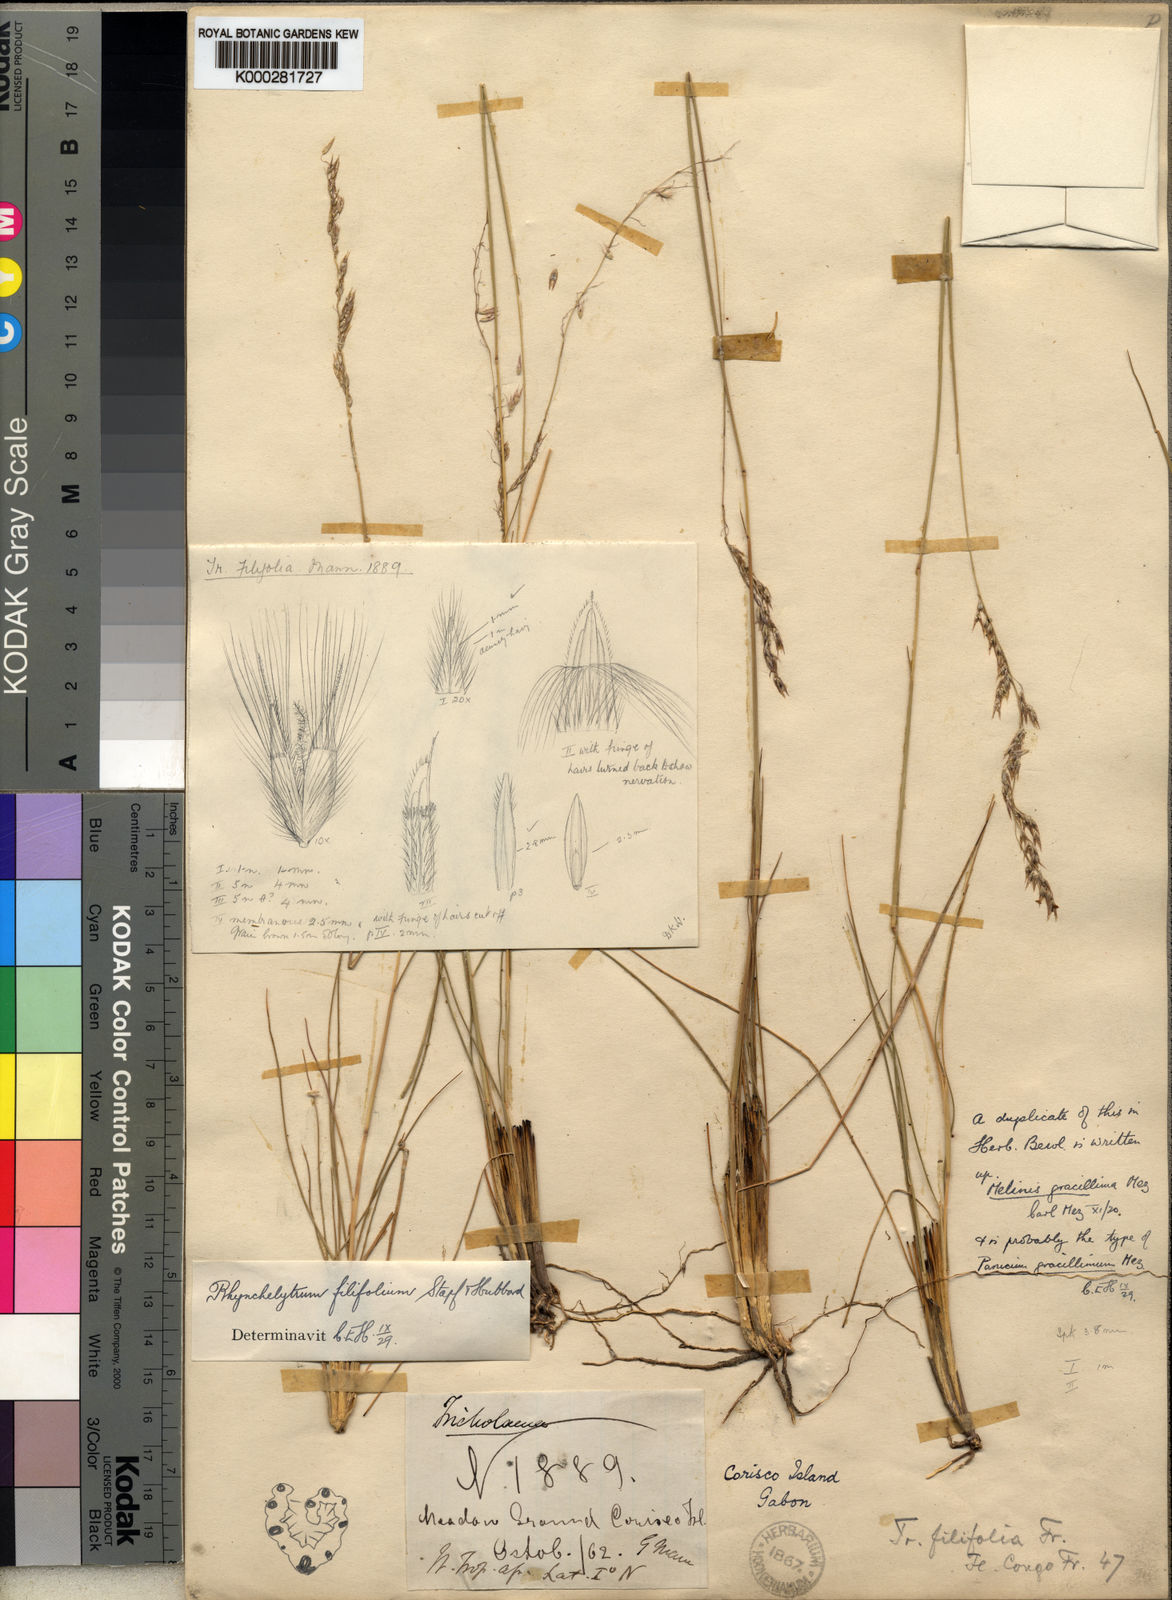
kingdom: Plantae
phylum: Tracheophyta
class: Liliopsida
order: Poales
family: Poaceae
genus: Melinis
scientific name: Melinis nerviglumis
